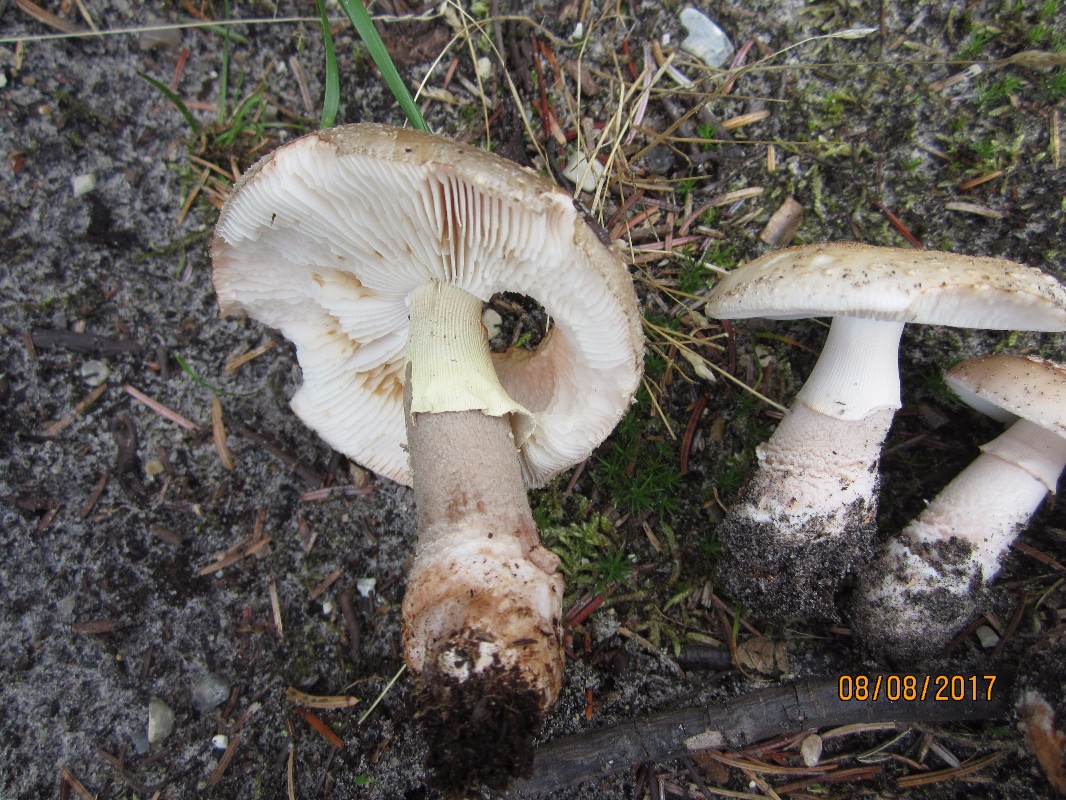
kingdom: Fungi
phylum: Basidiomycota
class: Agaricomycetes
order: Agaricales
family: Amanitaceae
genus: Amanita
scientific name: Amanita rubescens
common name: rødmende fluesvamp
